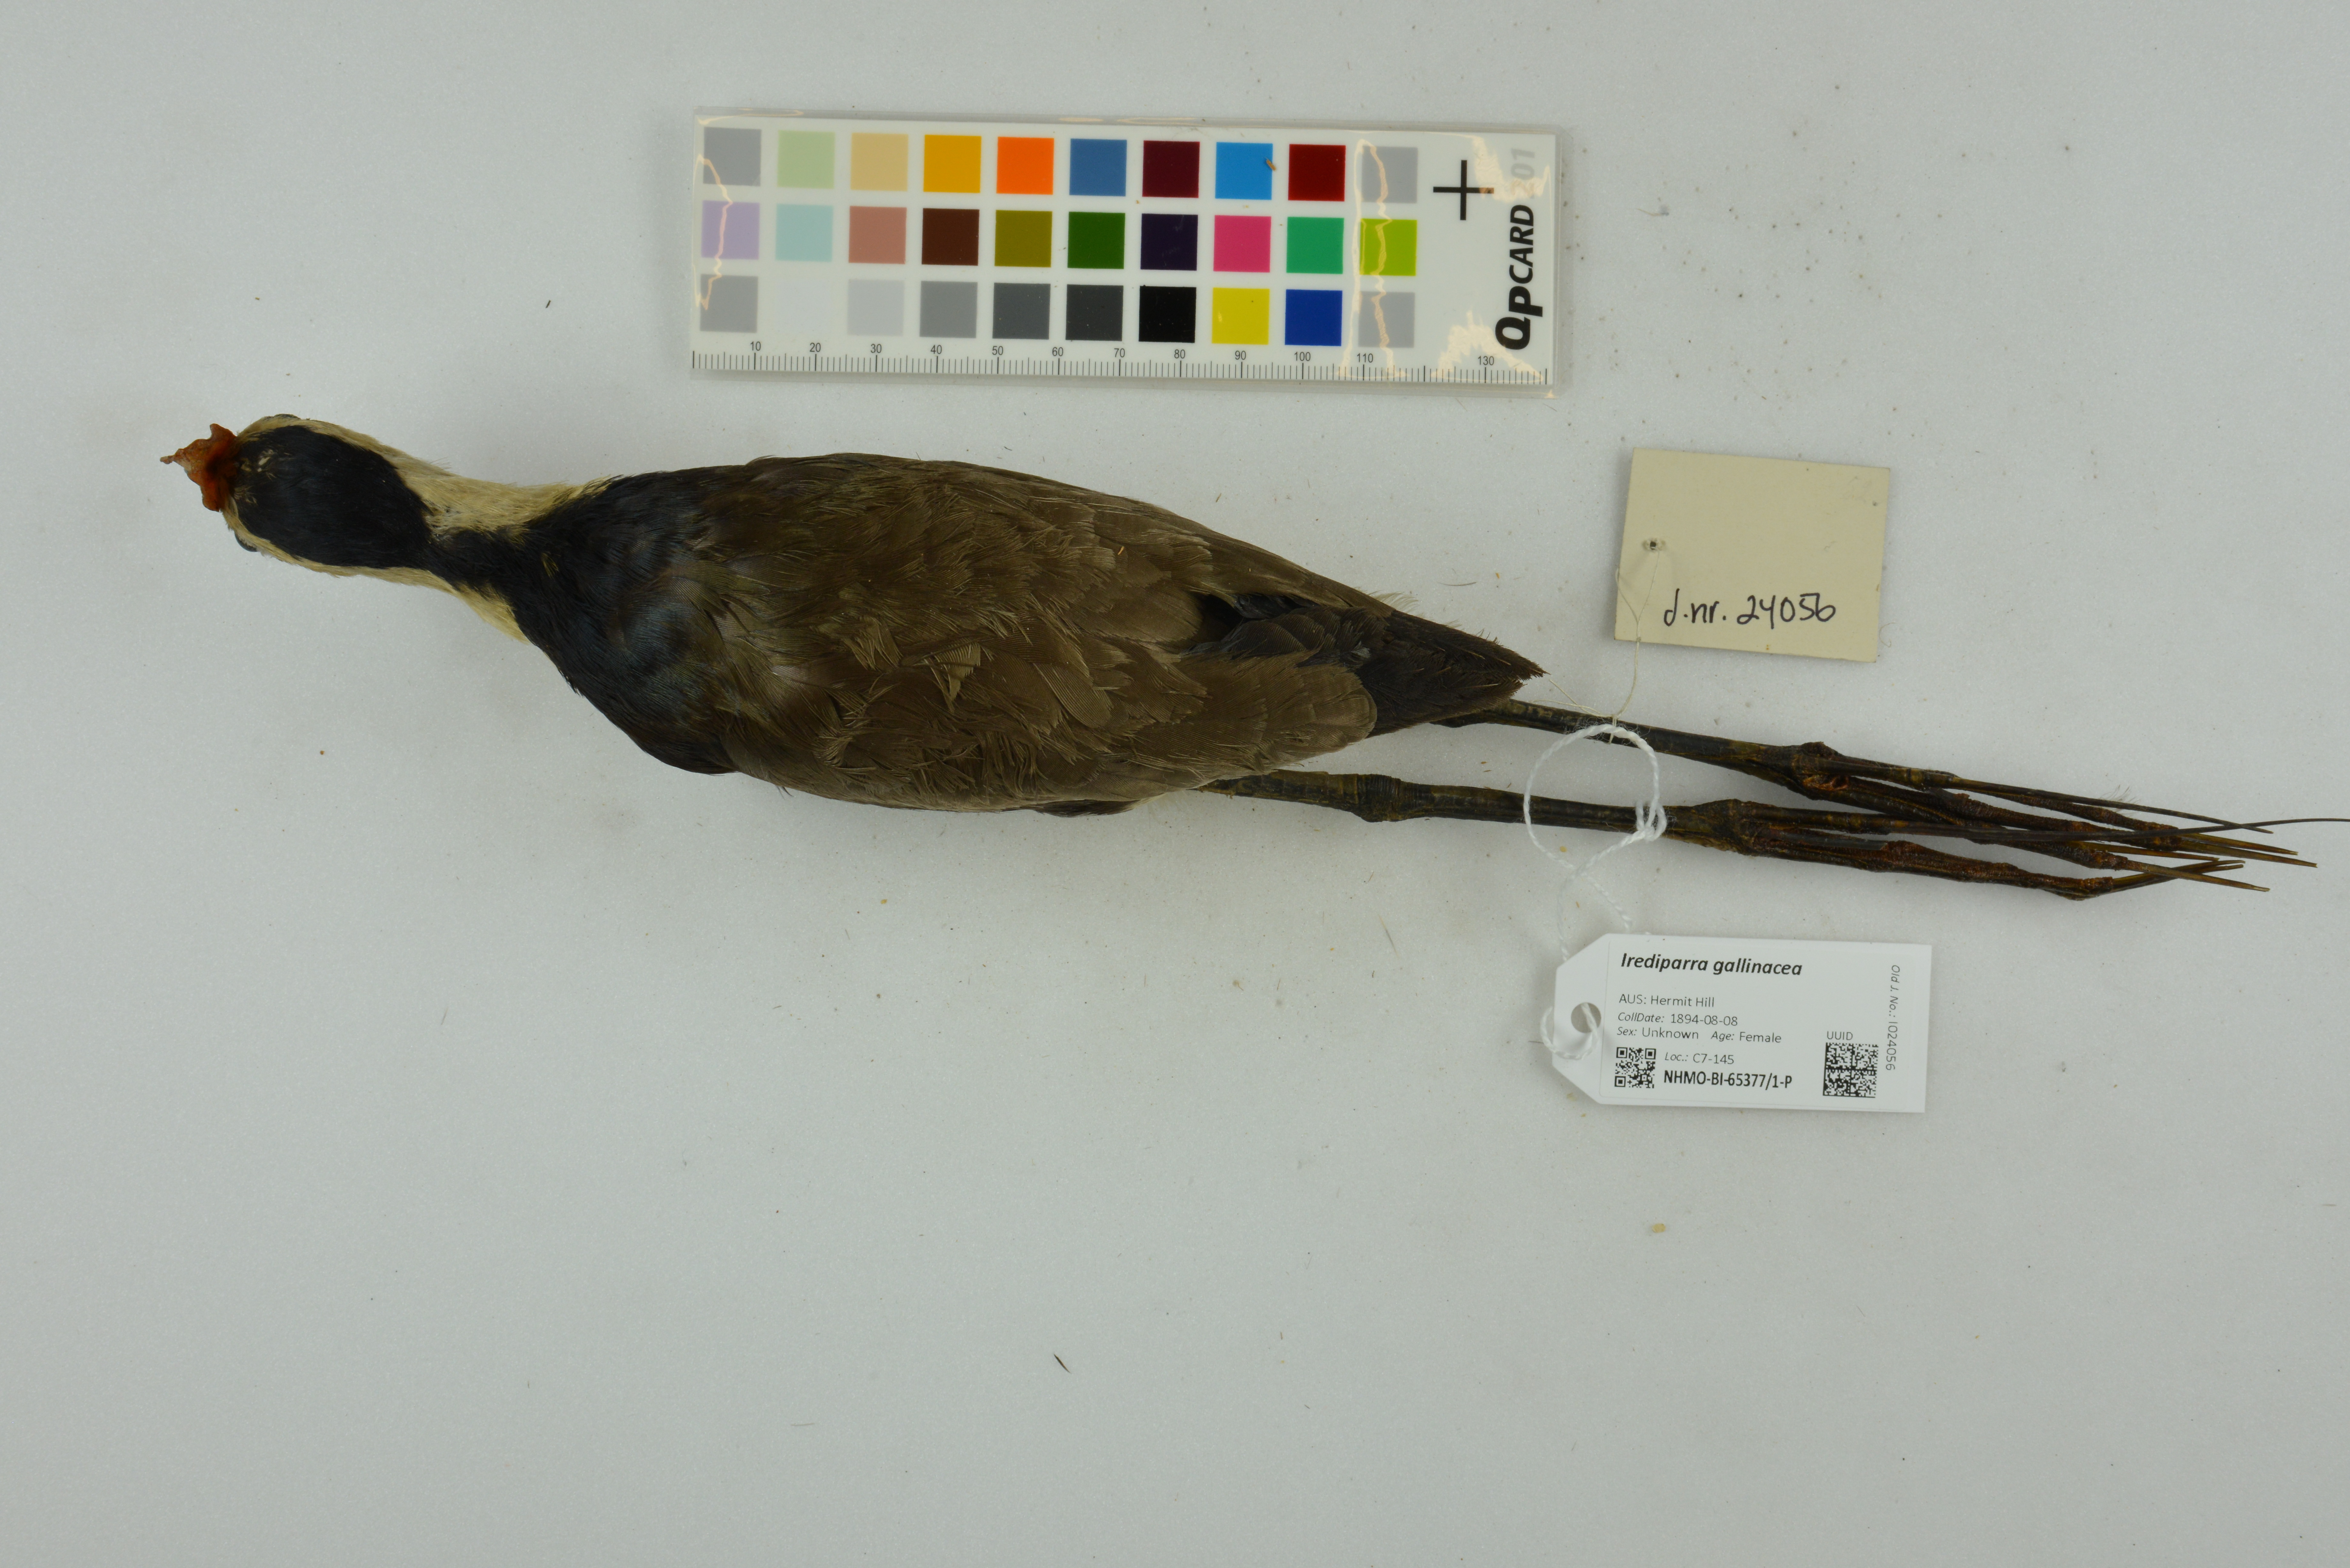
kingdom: Animalia
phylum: Chordata
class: Aves
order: Charadriiformes
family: Jacanidae
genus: Irediparra
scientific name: Irediparra gallinacea
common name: Comb-crested jacana
